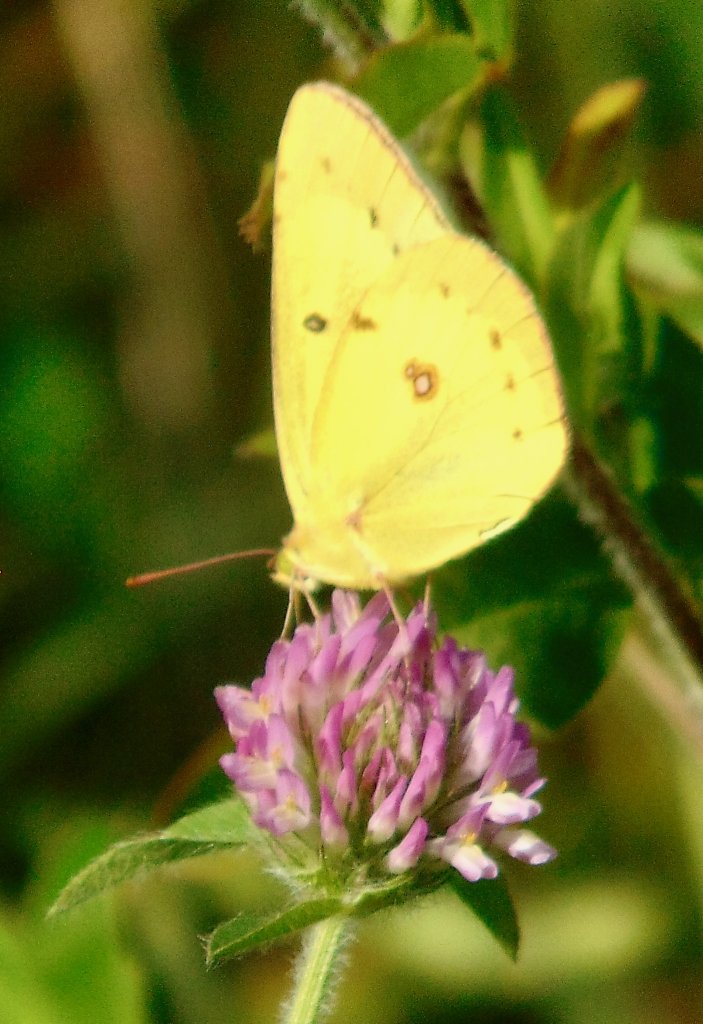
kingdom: Animalia
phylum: Arthropoda
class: Insecta
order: Lepidoptera
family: Pieridae
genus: Colias
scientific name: Colias eurytheme
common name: Orange Sulphur
